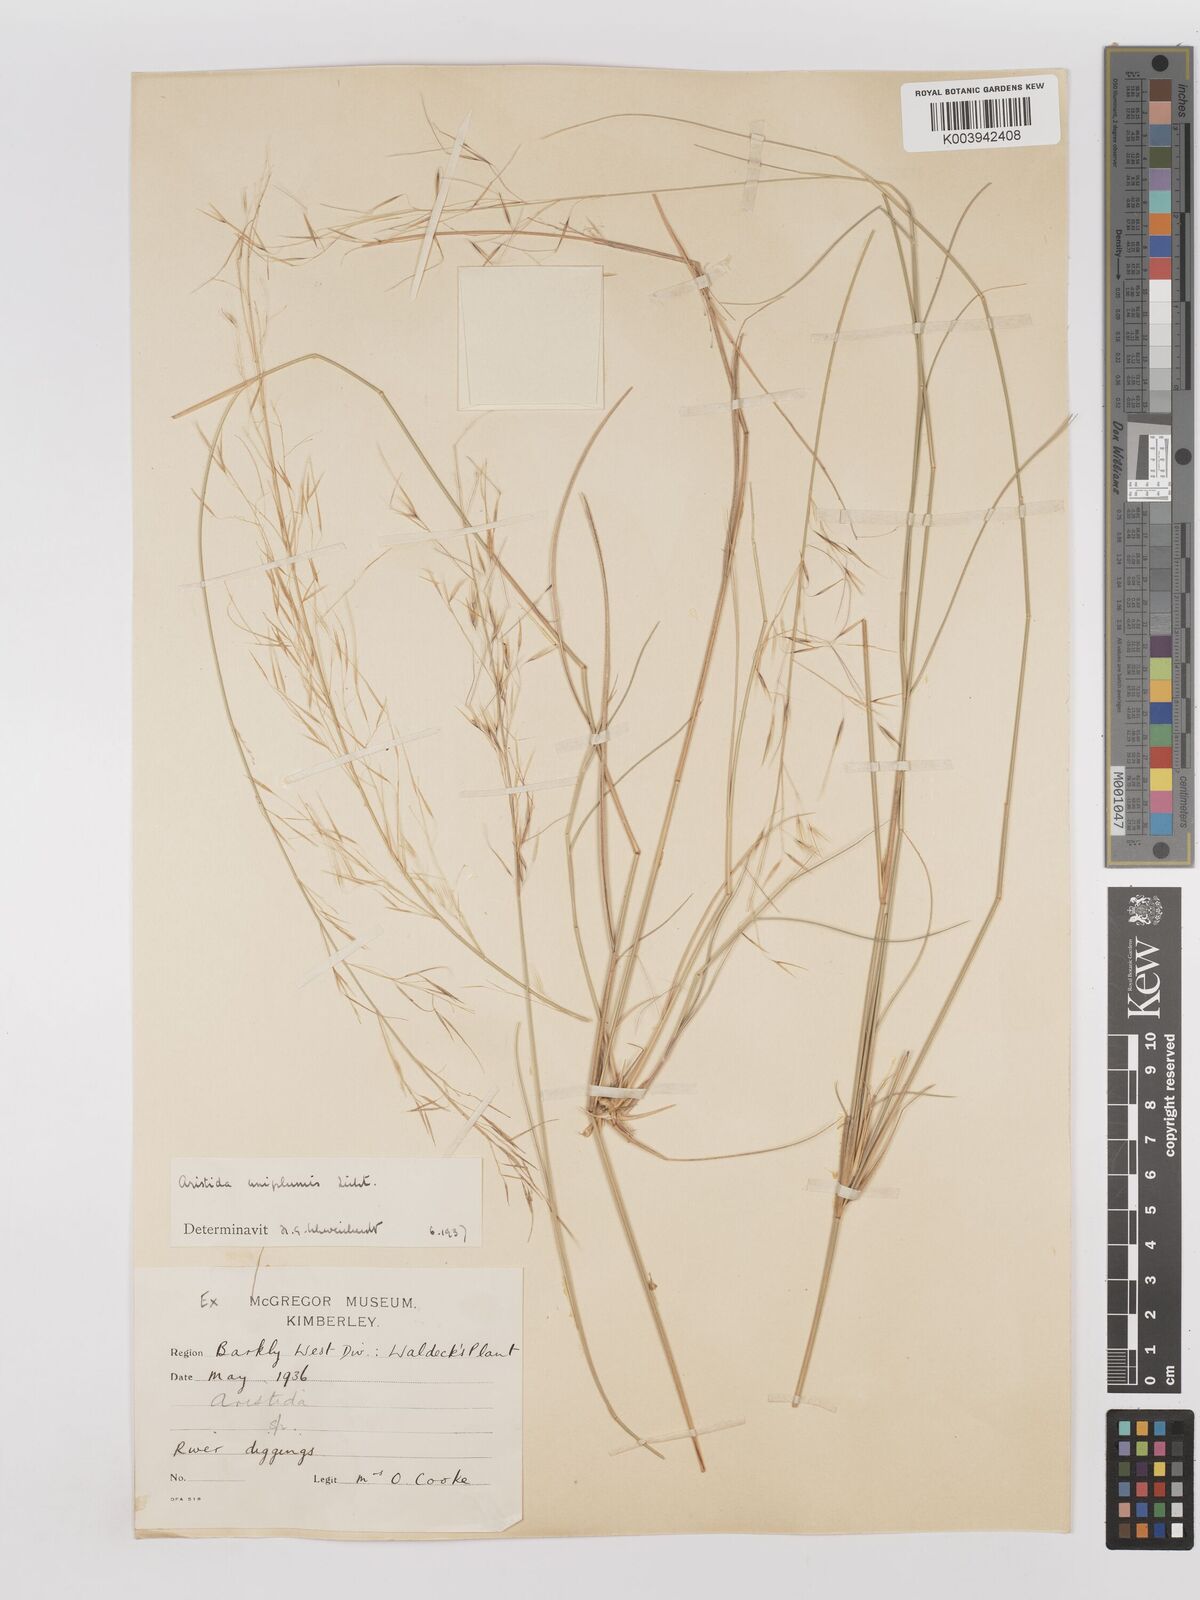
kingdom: Plantae
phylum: Tracheophyta
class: Liliopsida
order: Poales
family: Poaceae
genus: Stipagrostis
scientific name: Stipagrostis uniplumis
